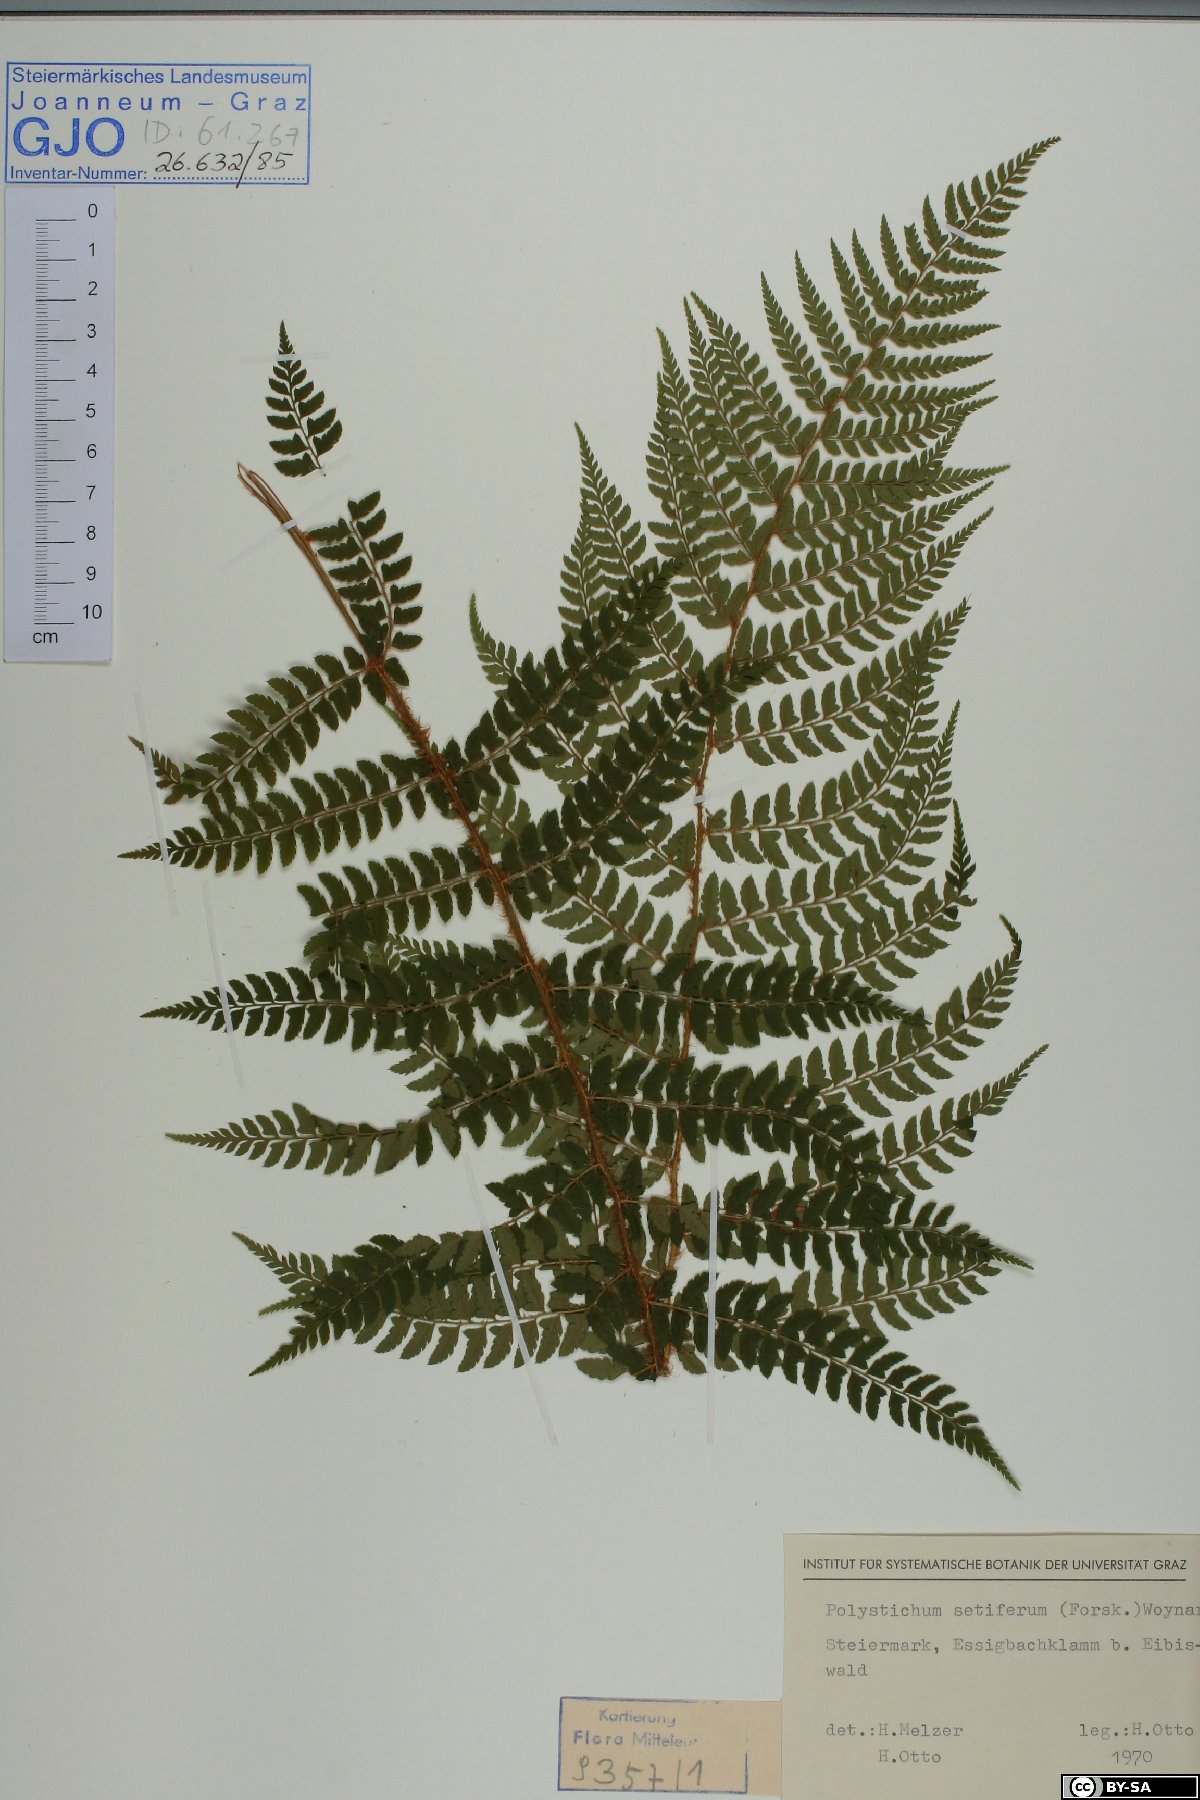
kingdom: Plantae
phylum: Tracheophyta
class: Polypodiopsida
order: Polypodiales
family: Dryopteridaceae
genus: Polystichum
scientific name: Polystichum setiferum
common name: Soft shield-fern
